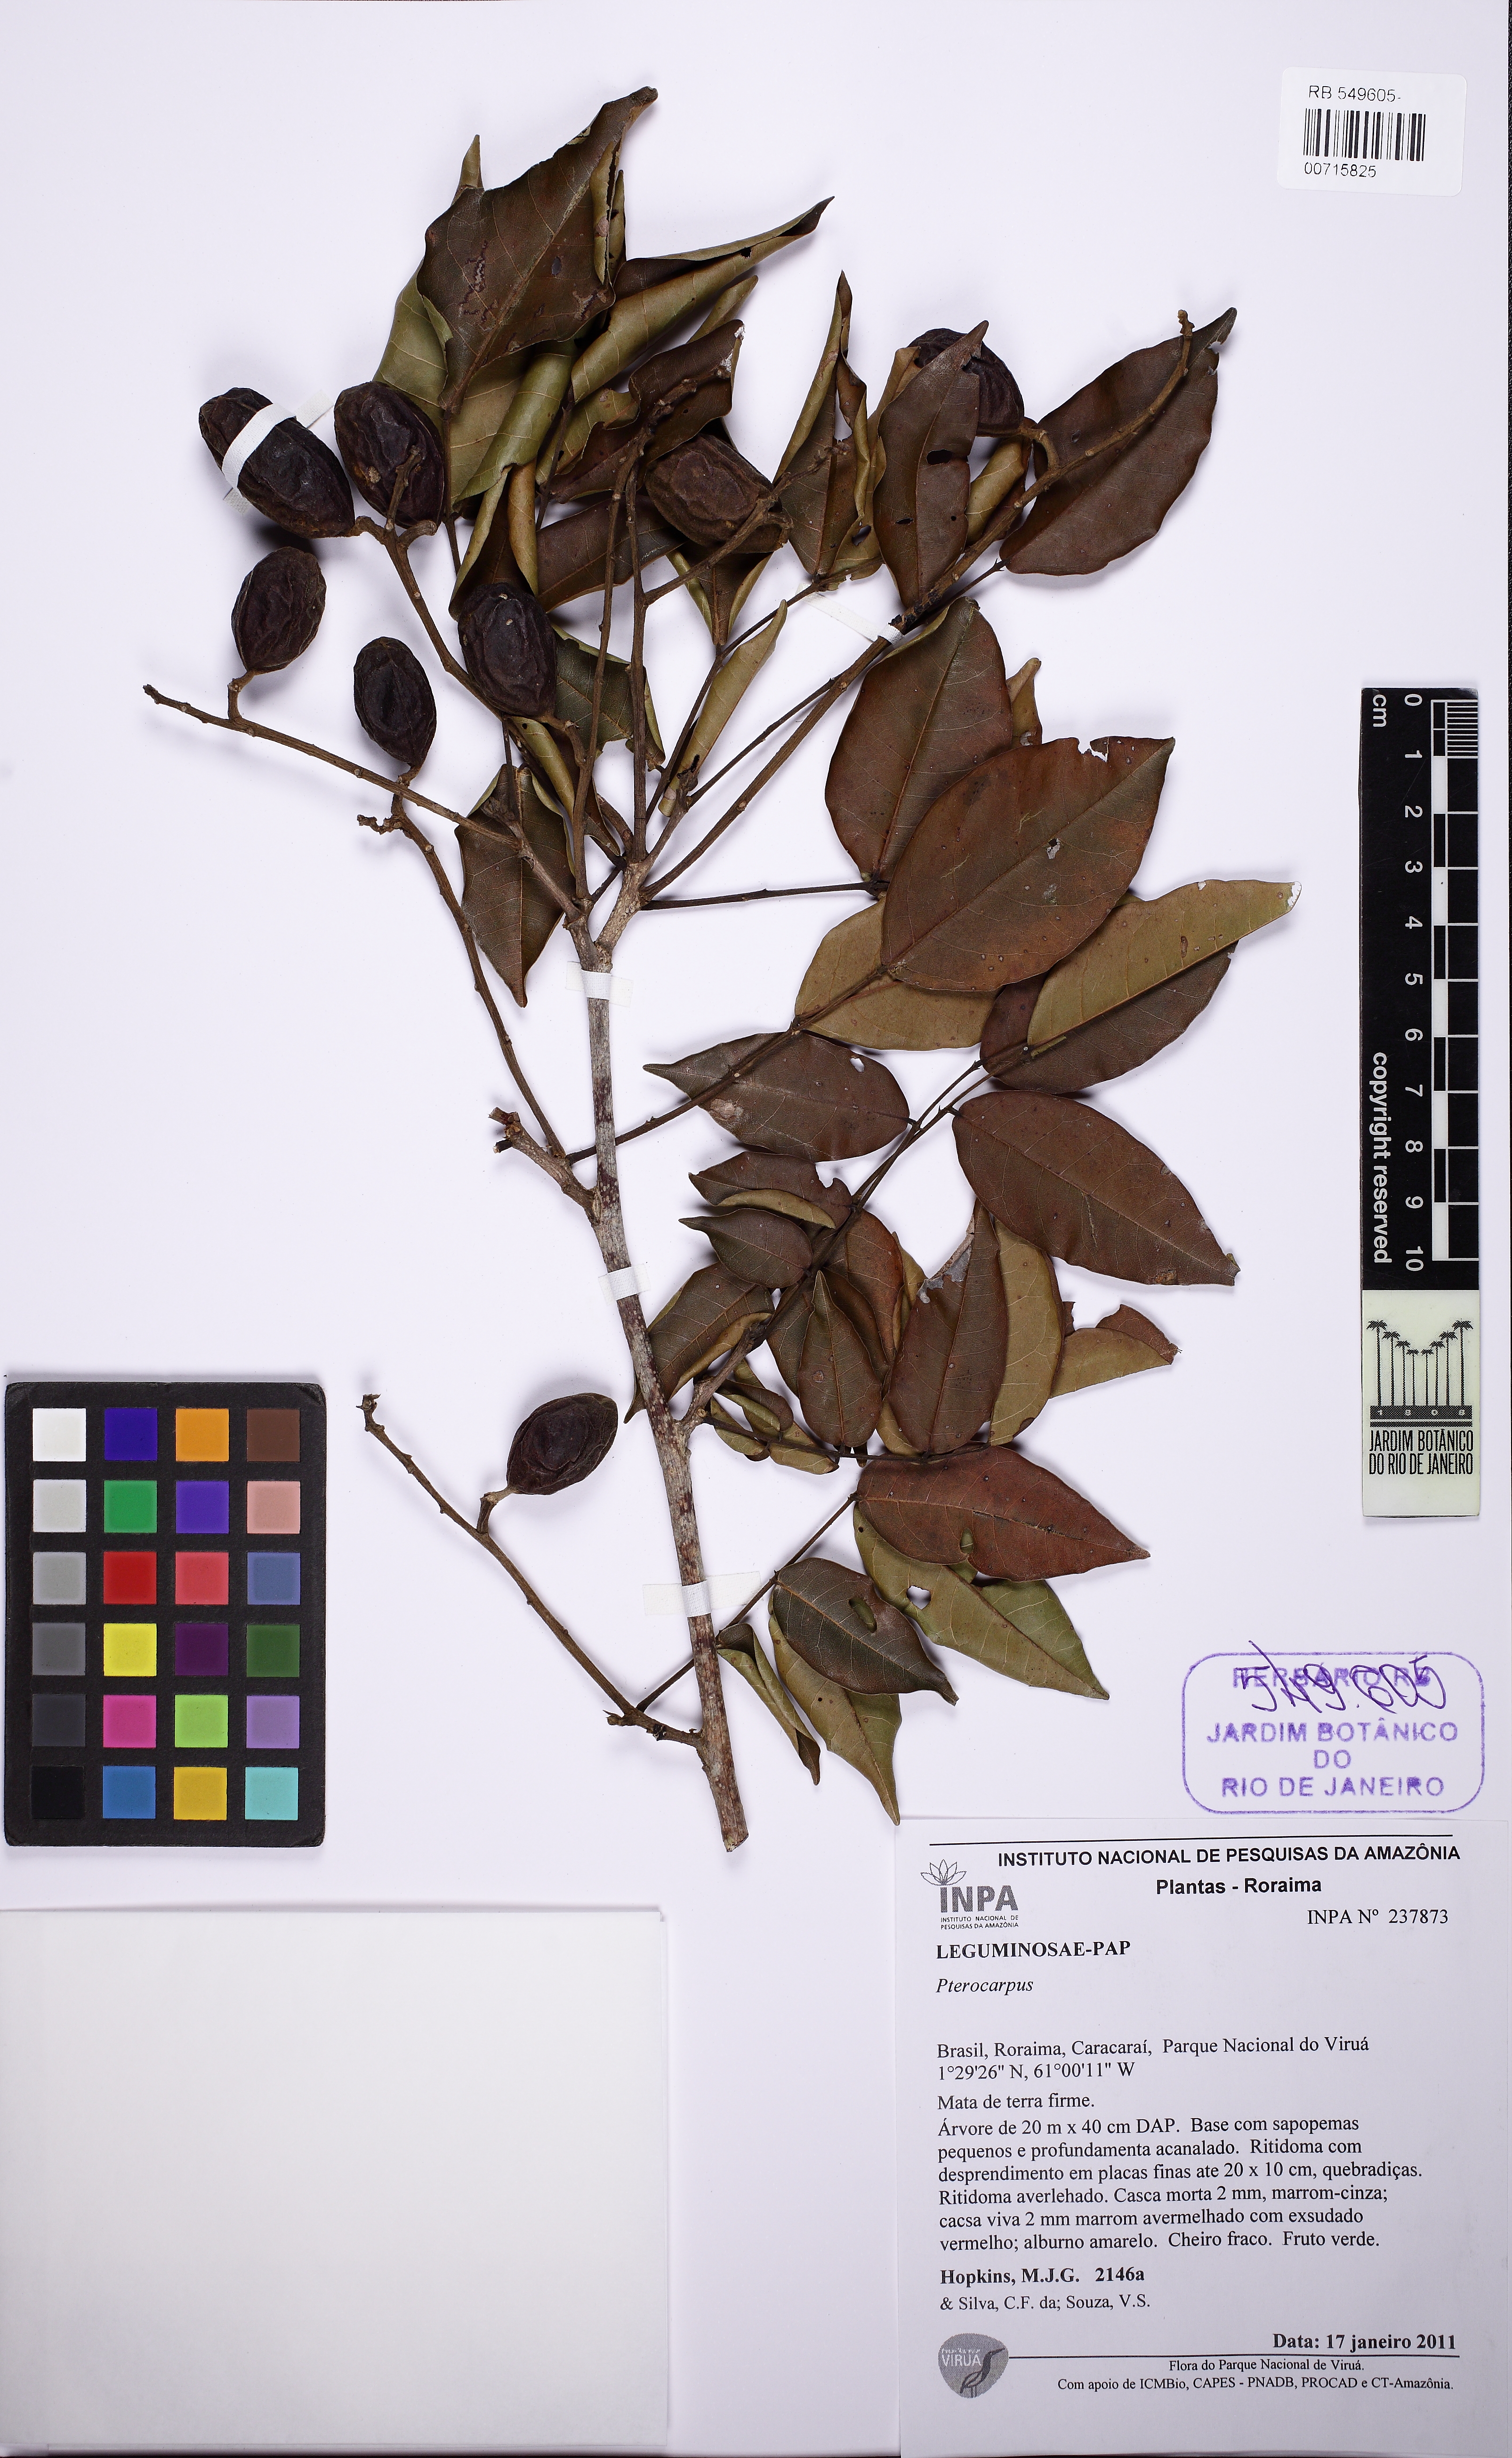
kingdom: Plantae
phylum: Tracheophyta
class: Magnoliopsida
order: Fabales
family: Fabaceae
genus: Swartzia
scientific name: Swartzia microstylis
